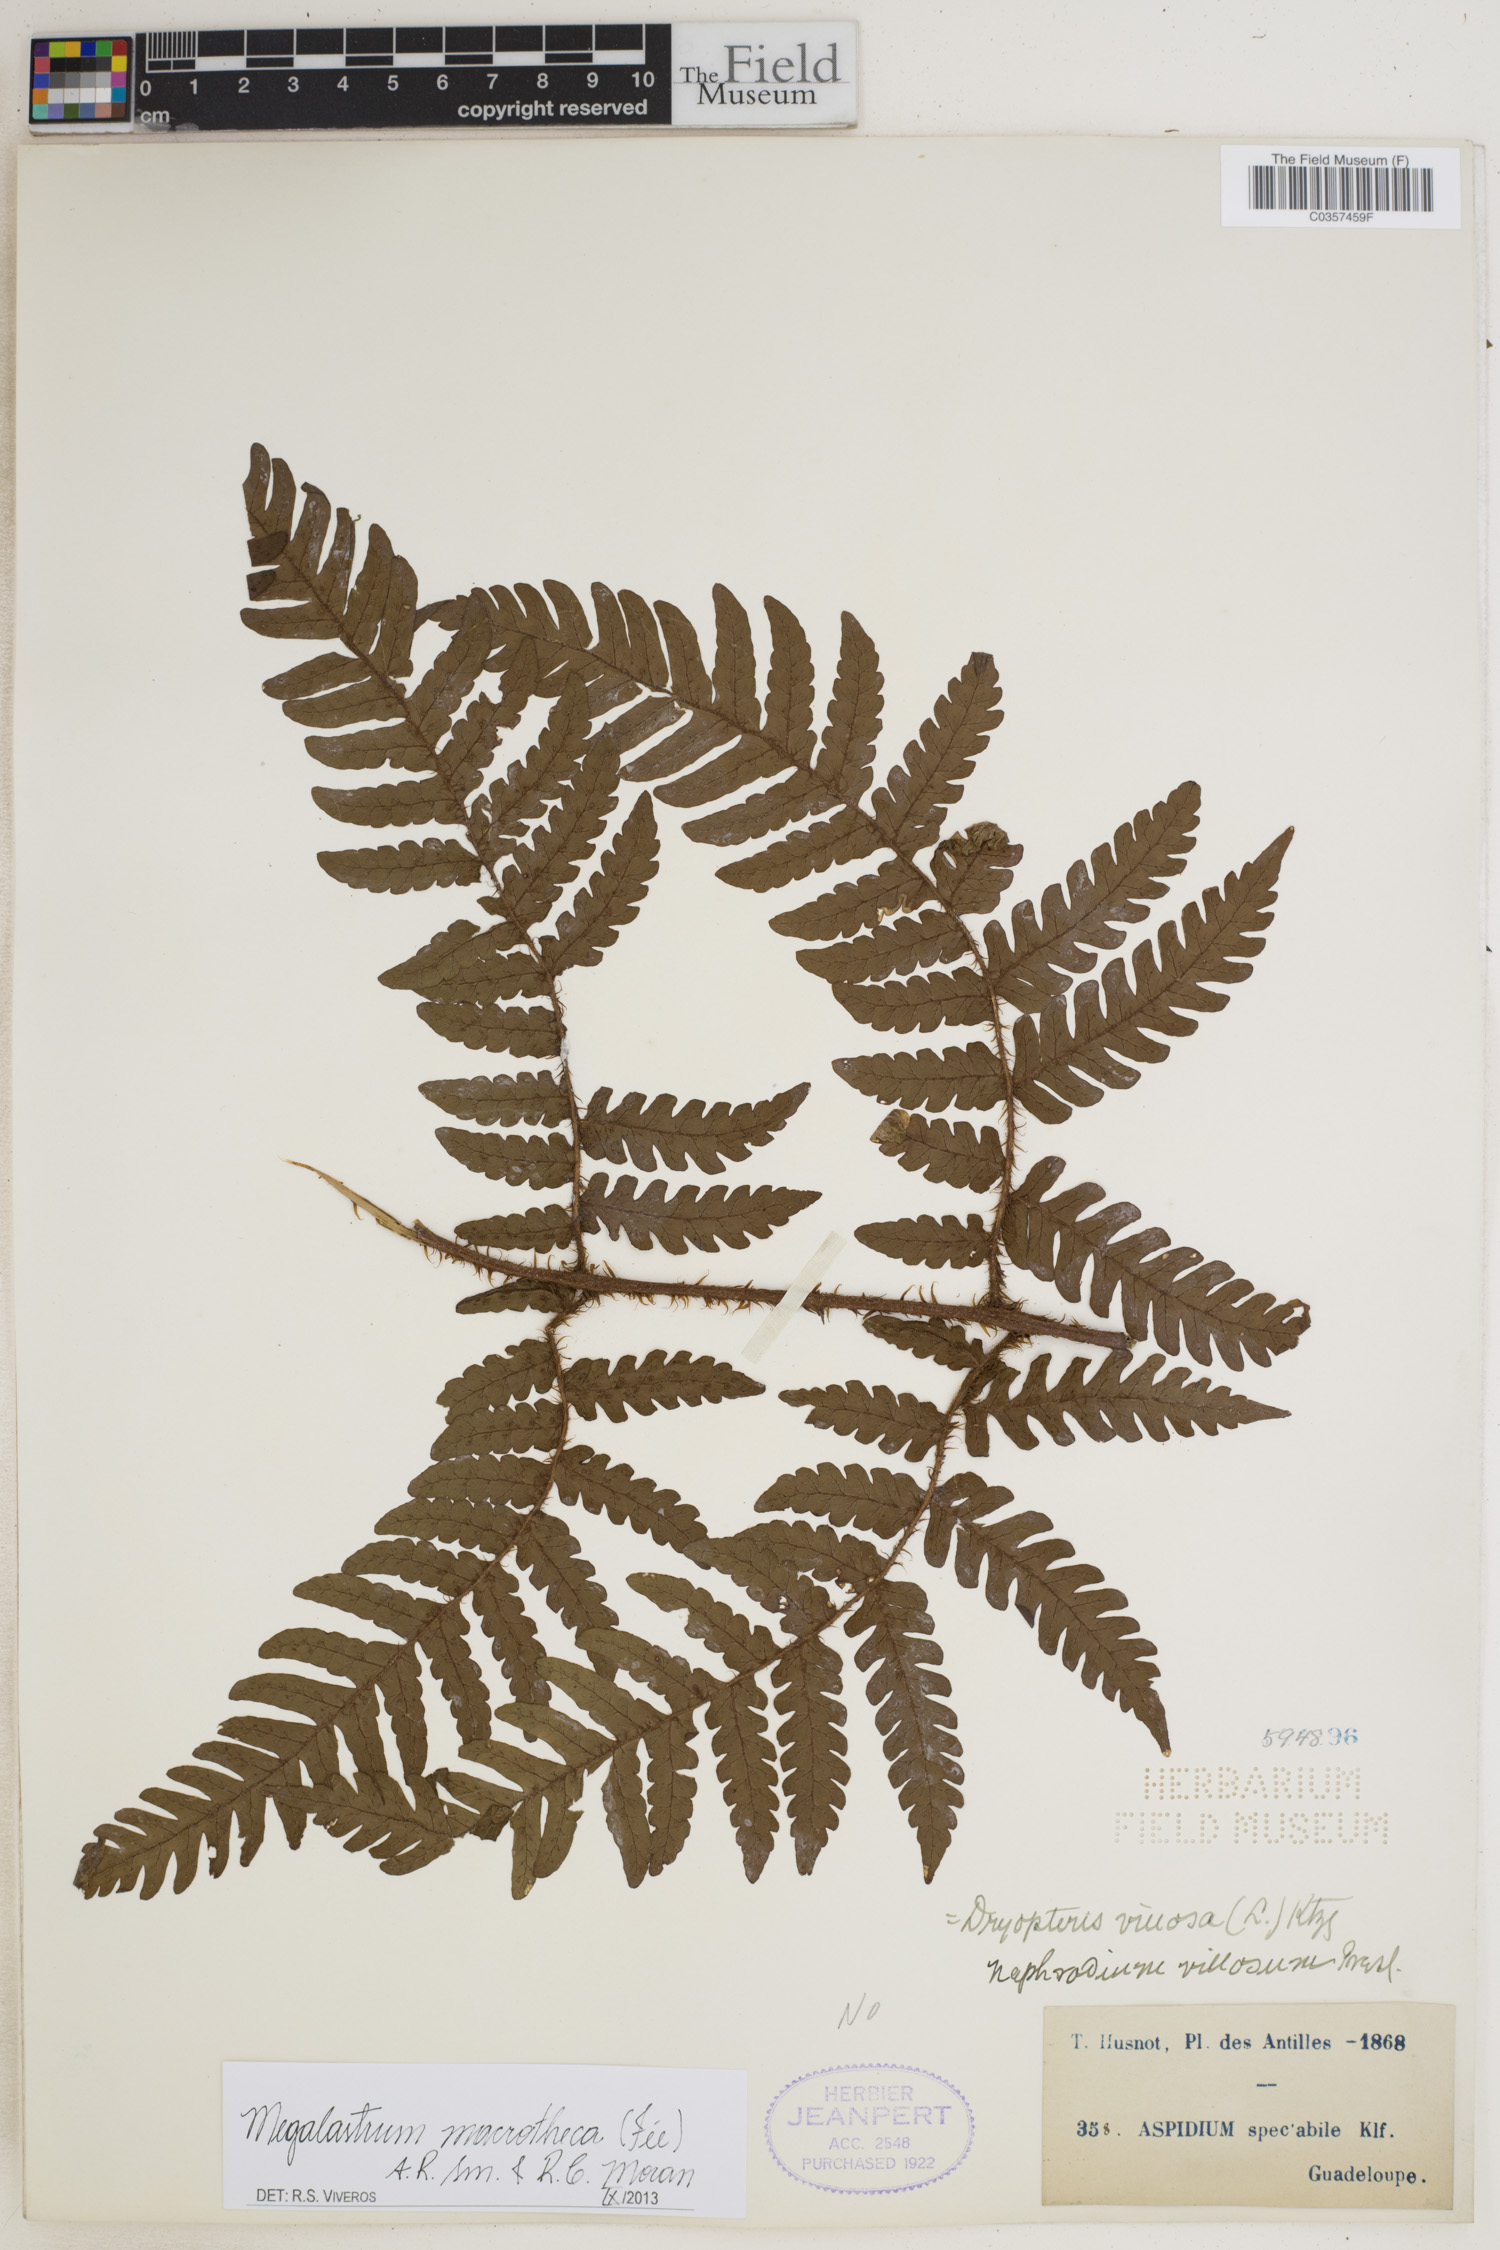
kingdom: Plantae
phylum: Tracheophyta
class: Polypodiopsida
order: Polypodiales
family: Dryopteridaceae
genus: Megalastrum
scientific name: Megalastrum macrothecum
